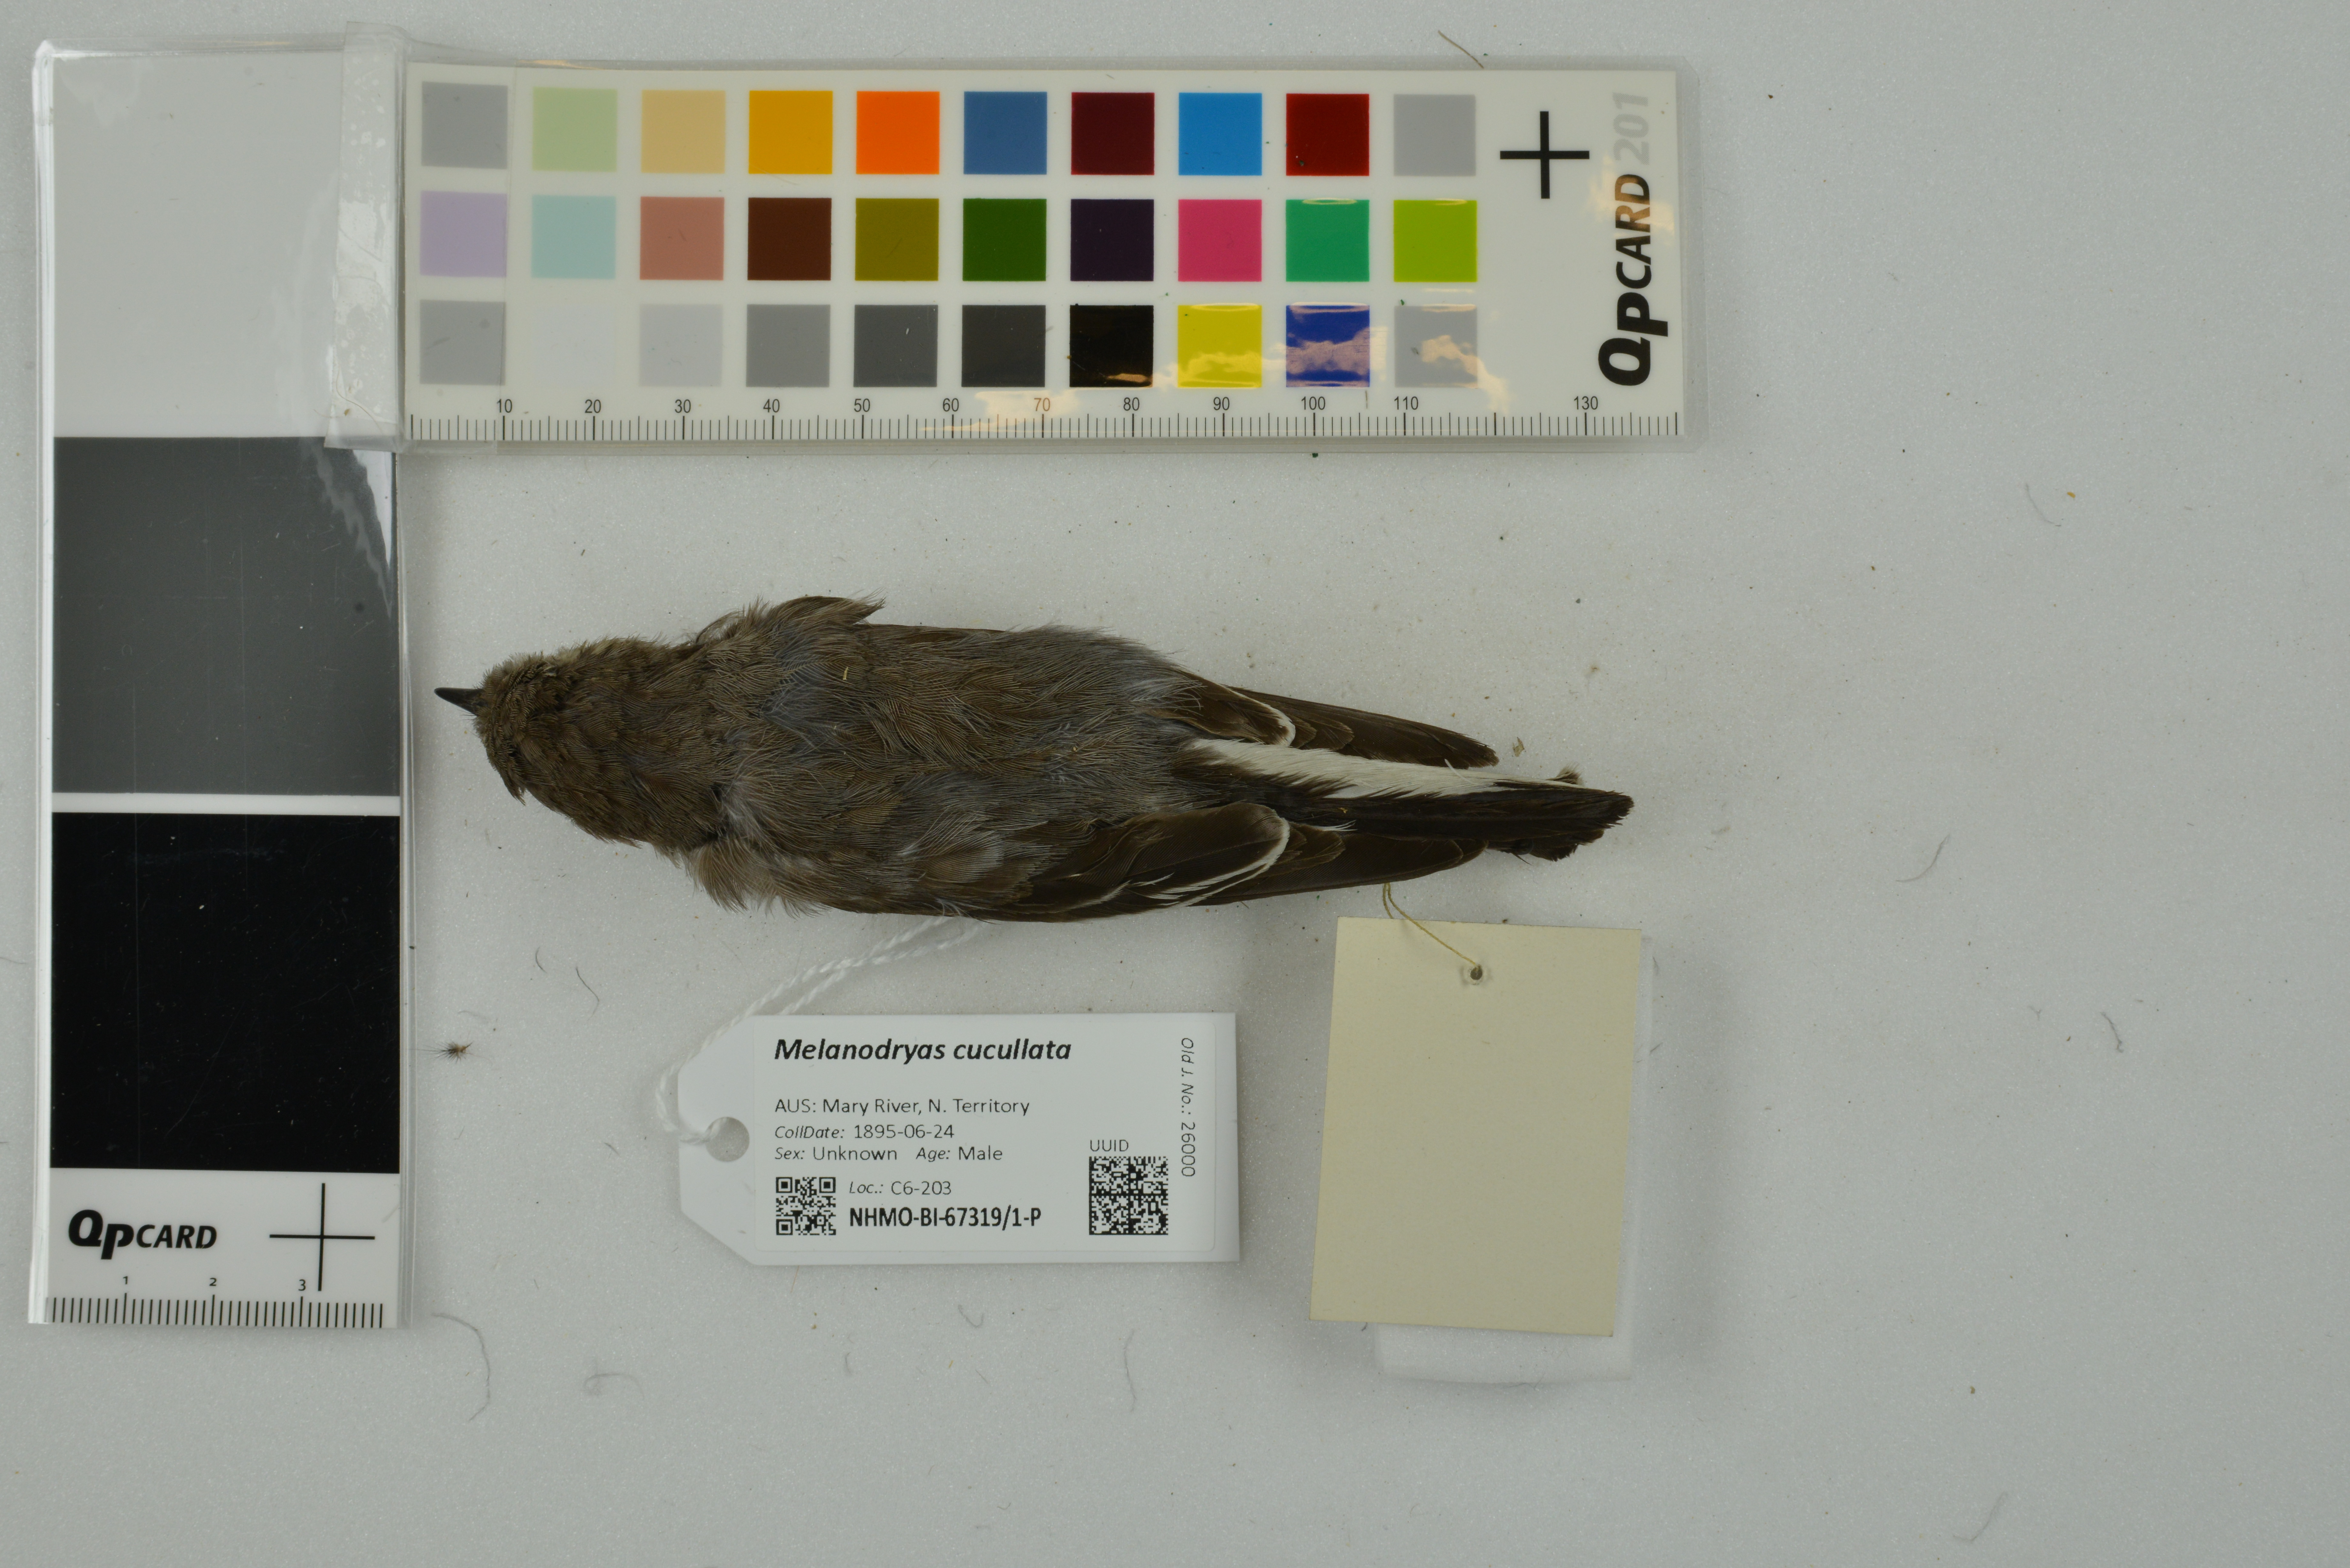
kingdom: Animalia
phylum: Chordata
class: Aves
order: Passeriformes
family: Petroicidae
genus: Melanodryas
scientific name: Melanodryas cucullata
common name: Hooded robin
